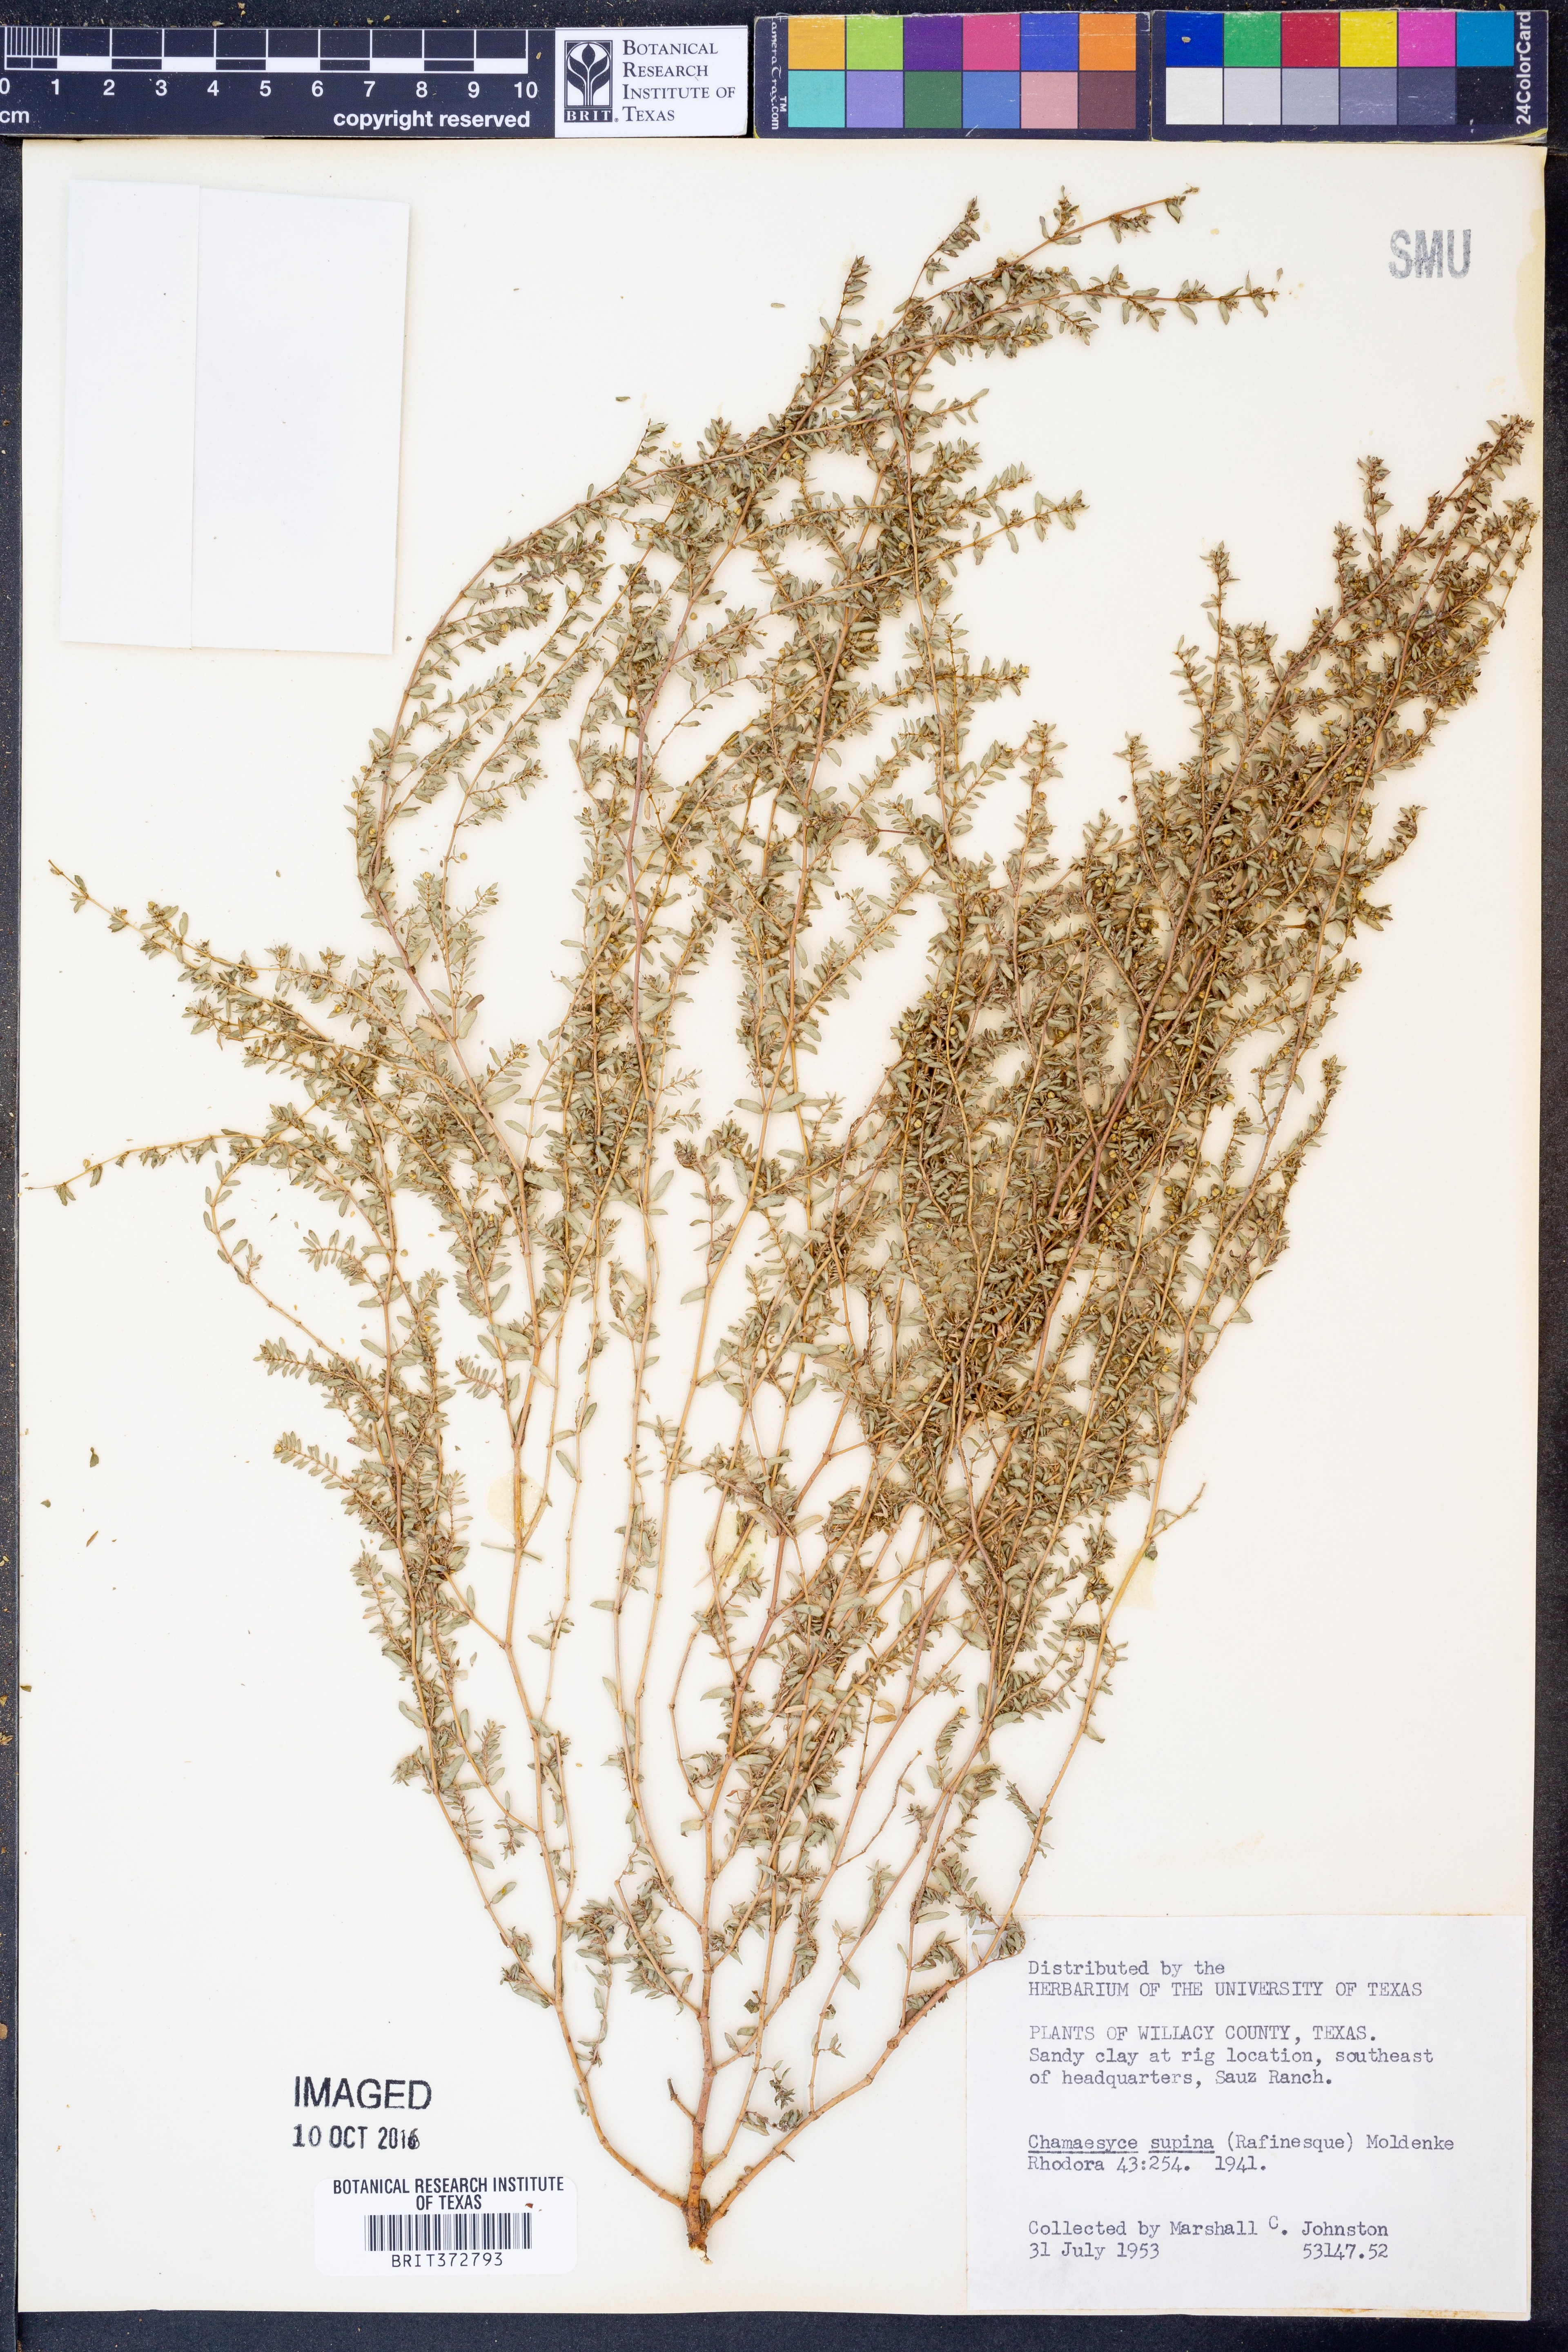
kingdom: Plantae
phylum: Tracheophyta
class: Magnoliopsida
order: Malpighiales
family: Euphorbiaceae
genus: Euphorbia
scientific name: Euphorbia maculata
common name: Spotted spurge
